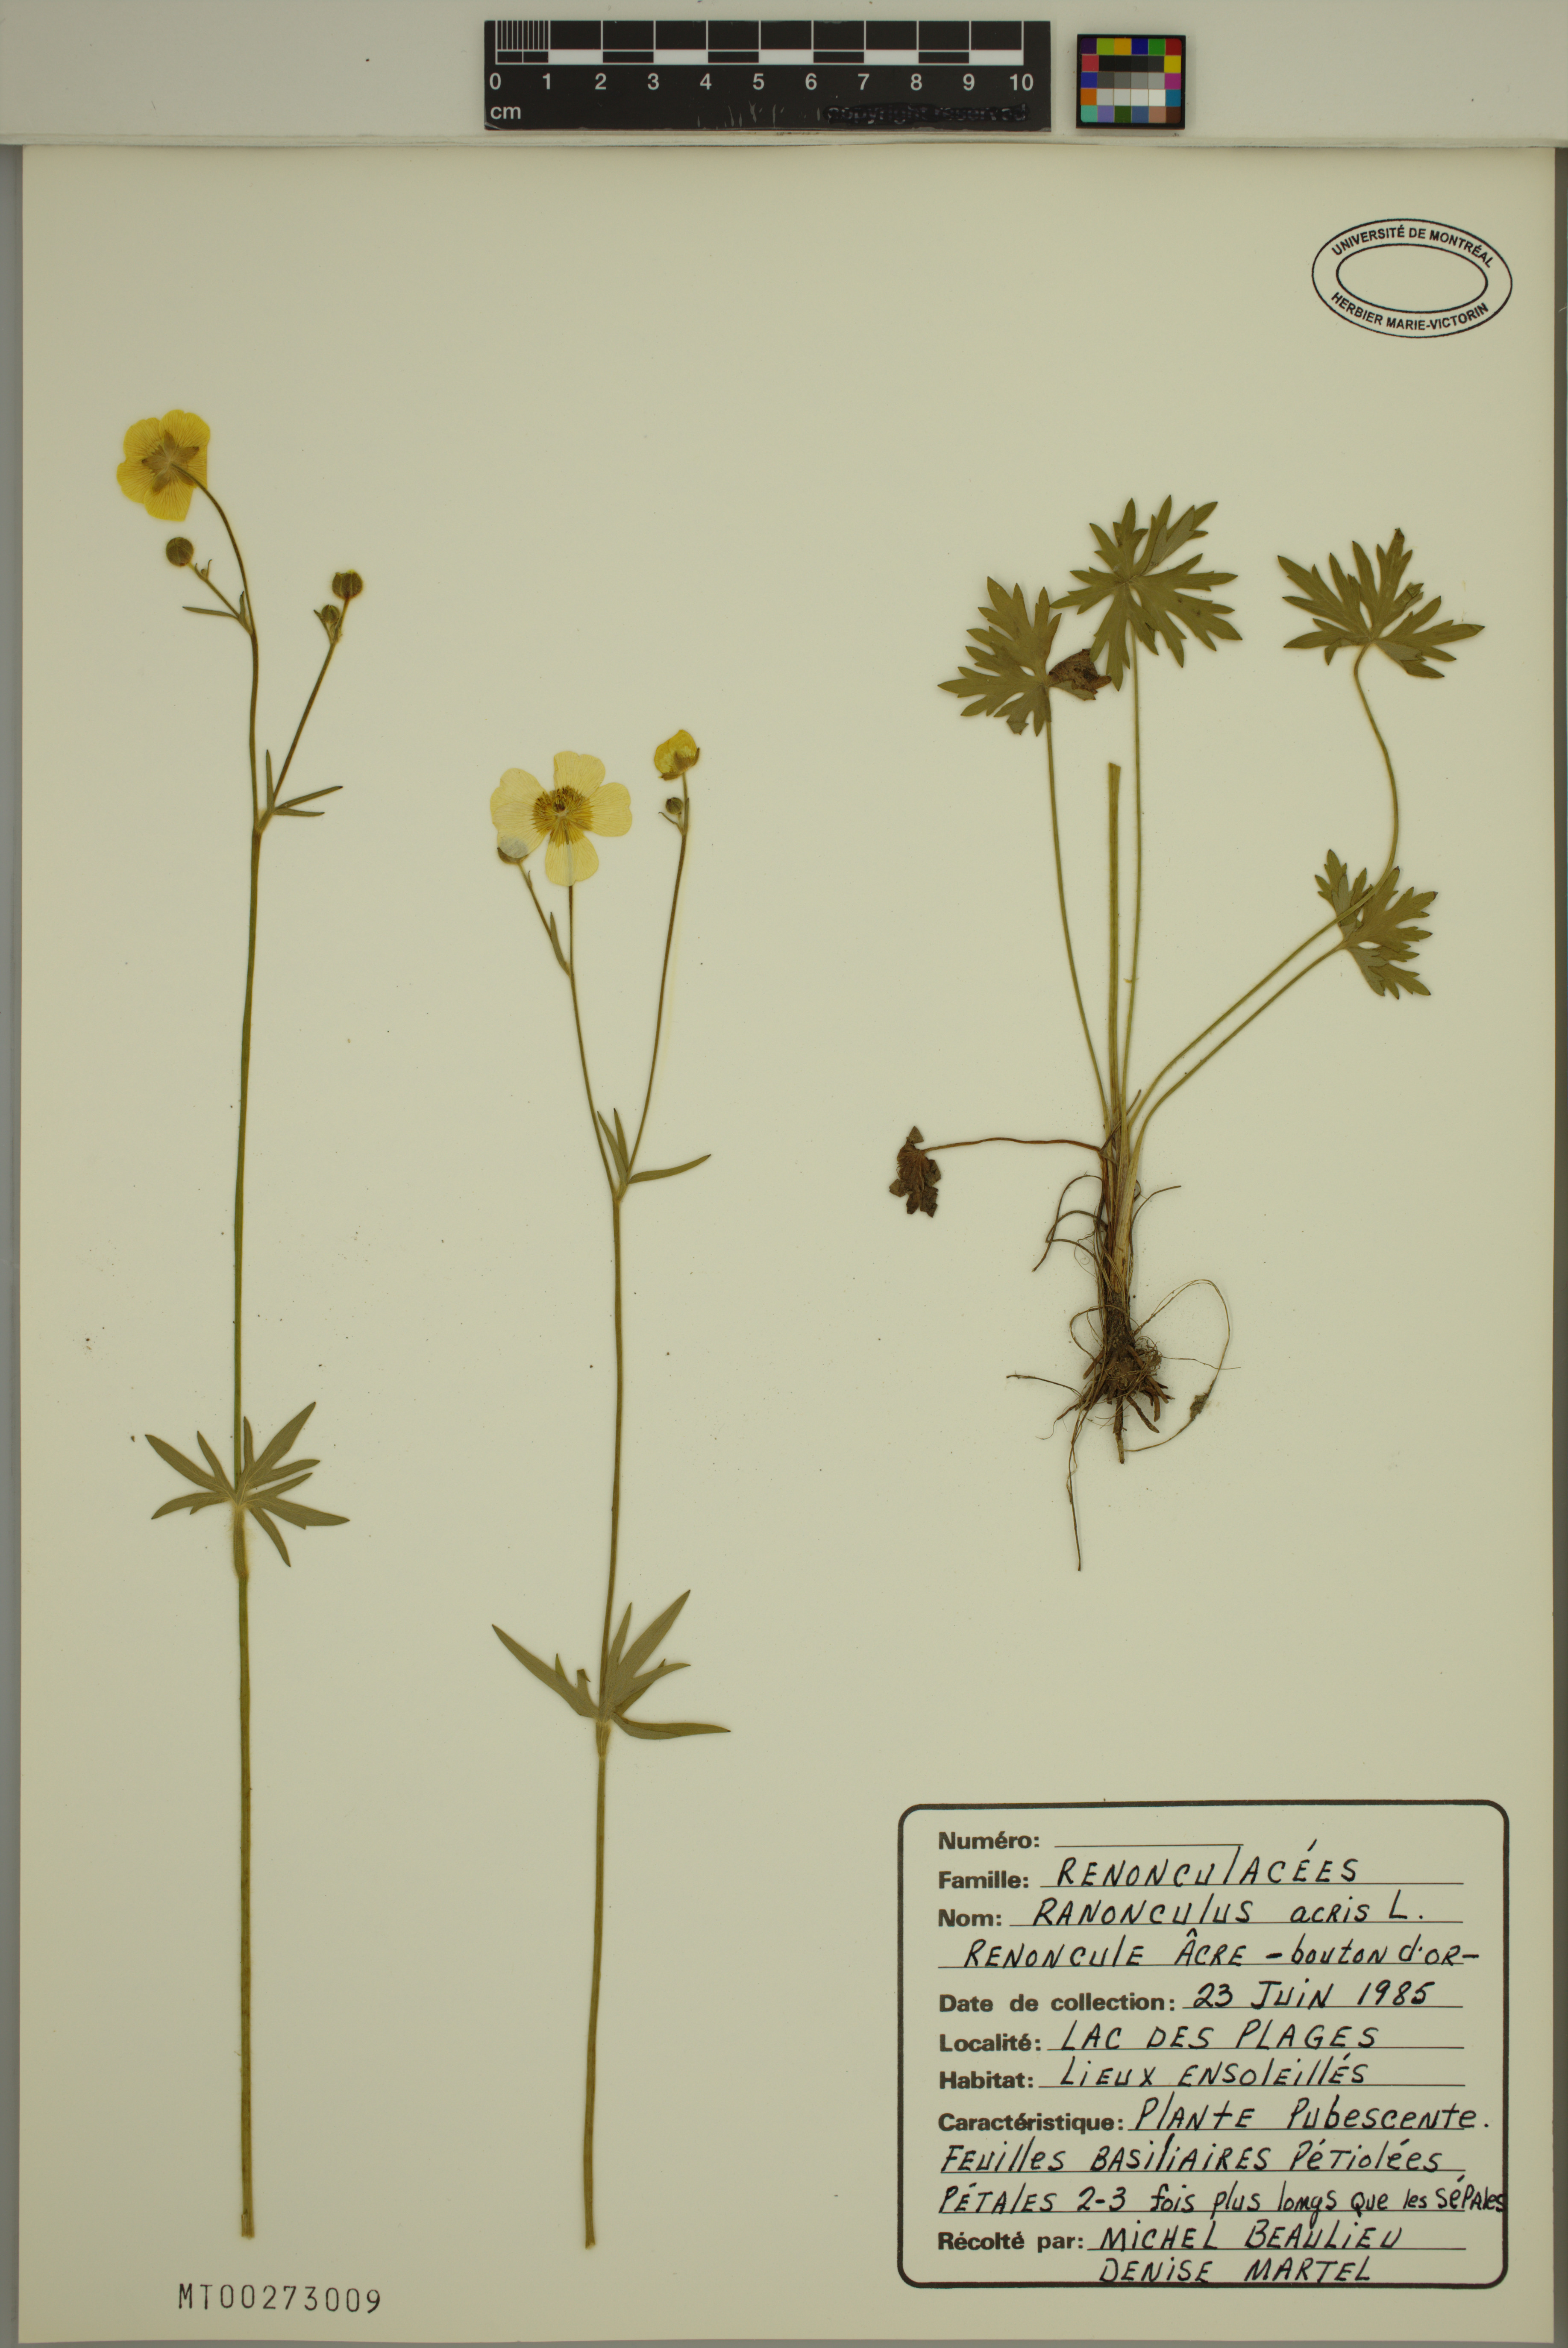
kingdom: Plantae
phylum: Tracheophyta
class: Magnoliopsida
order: Ranunculales
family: Ranunculaceae
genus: Ranunculus
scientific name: Ranunculus acris
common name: Meadow buttercup
